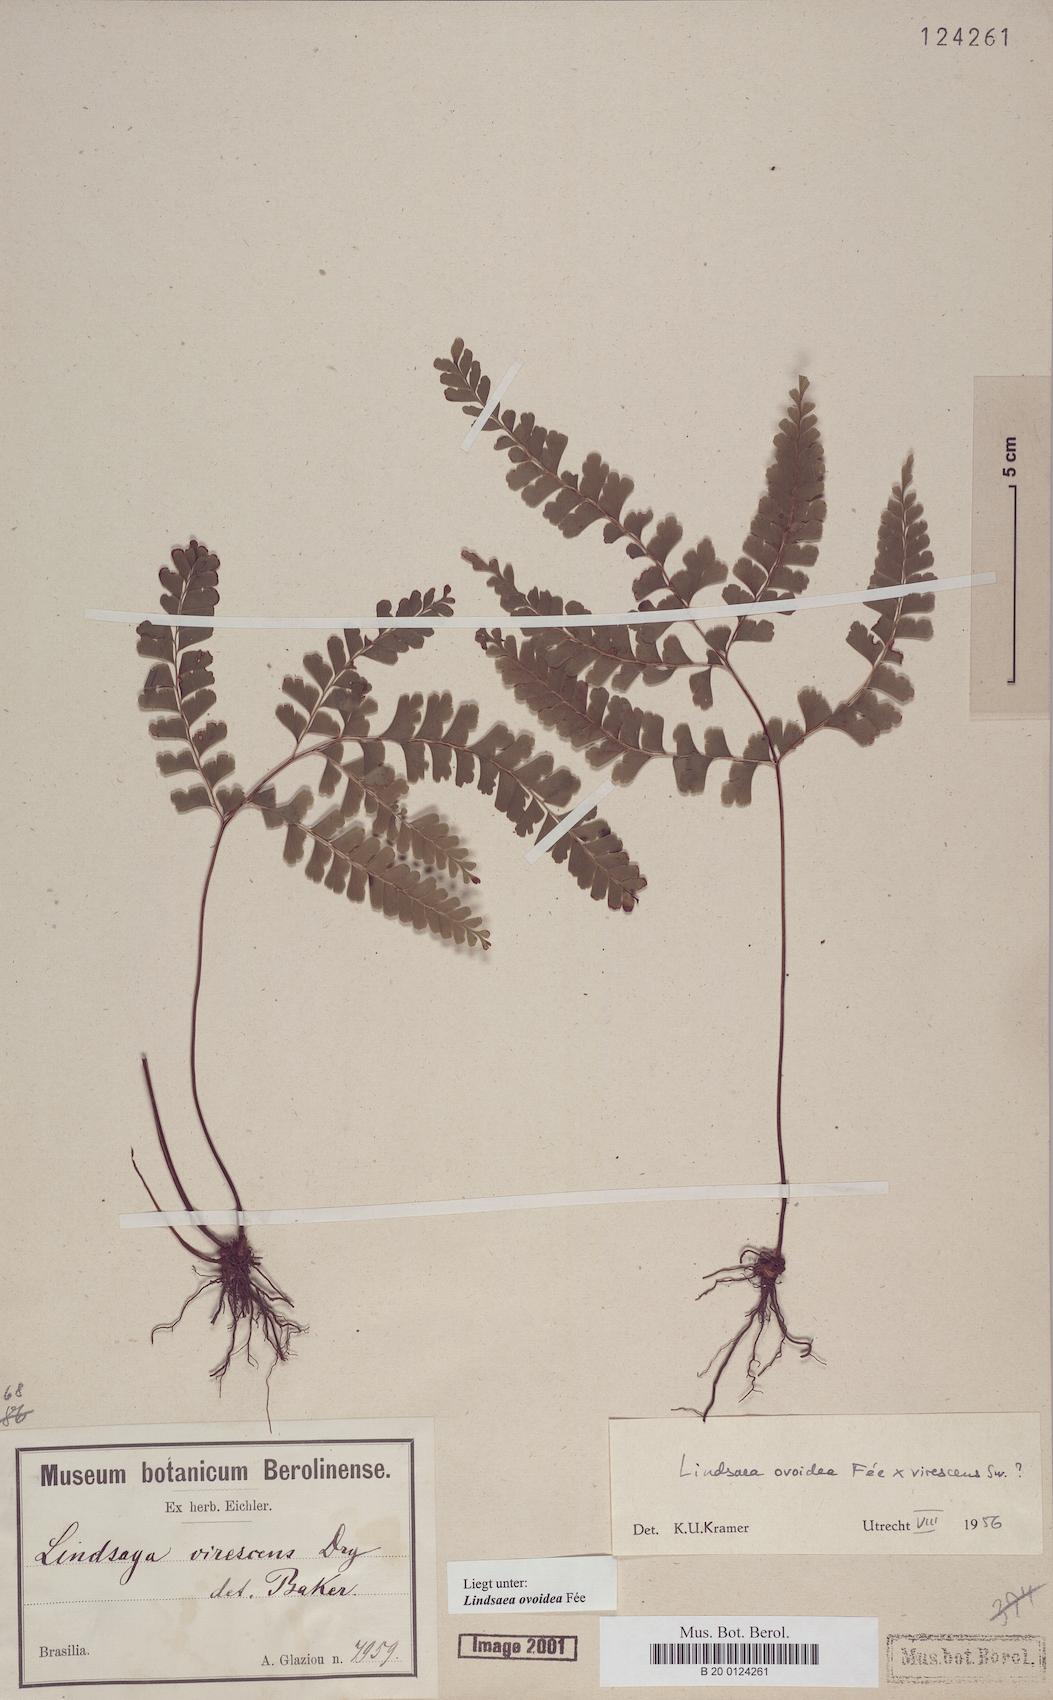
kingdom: Plantae
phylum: Tracheophyta
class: Polypodiopsida
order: Polypodiales
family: Lindsaeaceae
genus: Lindsaea
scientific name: Lindsaea ovoidea
